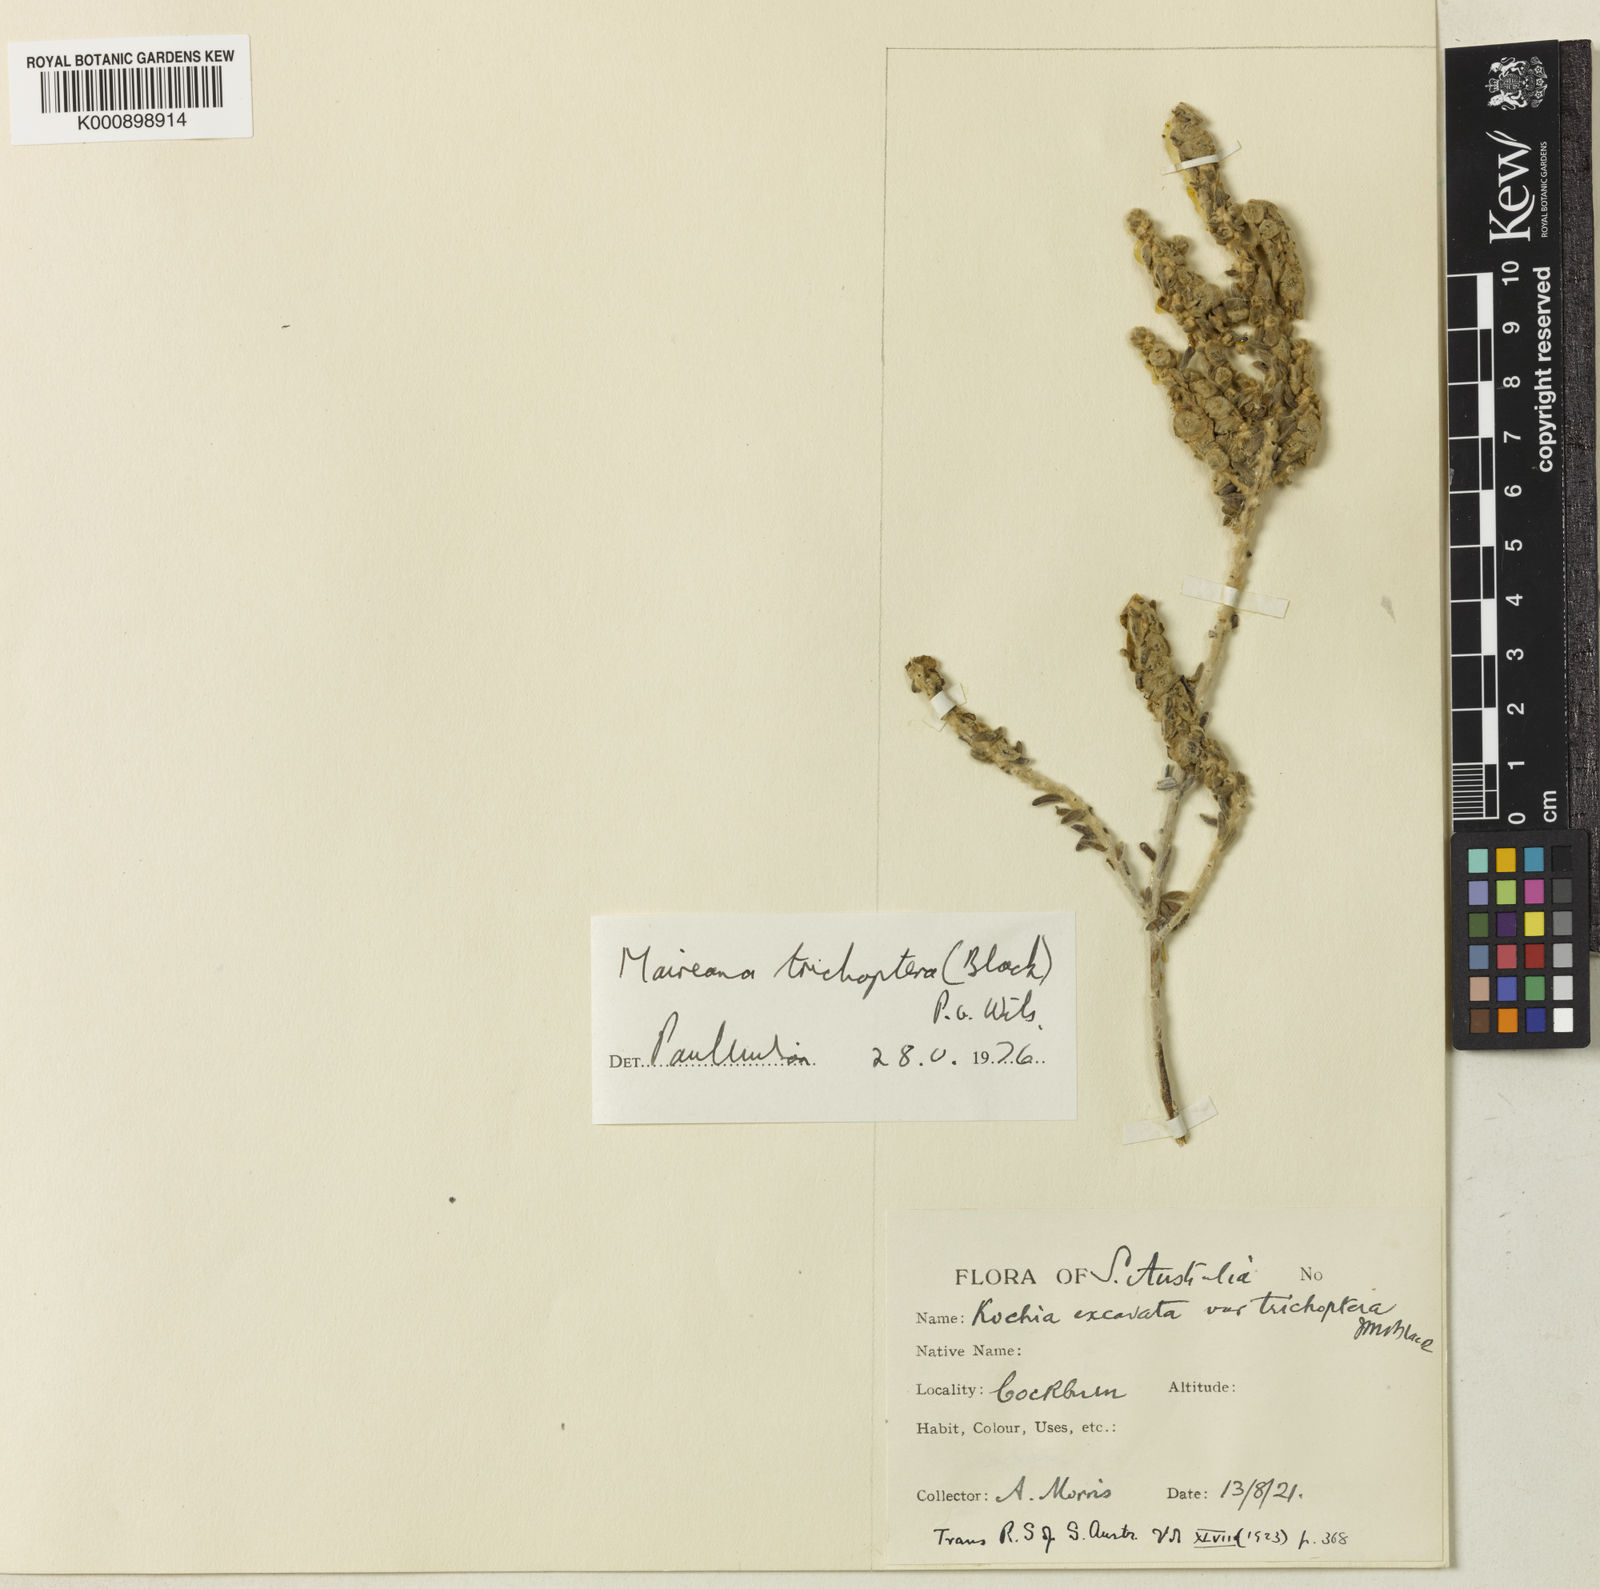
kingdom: Plantae
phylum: Tracheophyta
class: Magnoliopsida
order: Caryophyllales
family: Amaranthaceae
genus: Maireana
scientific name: Maireana trichoptera
